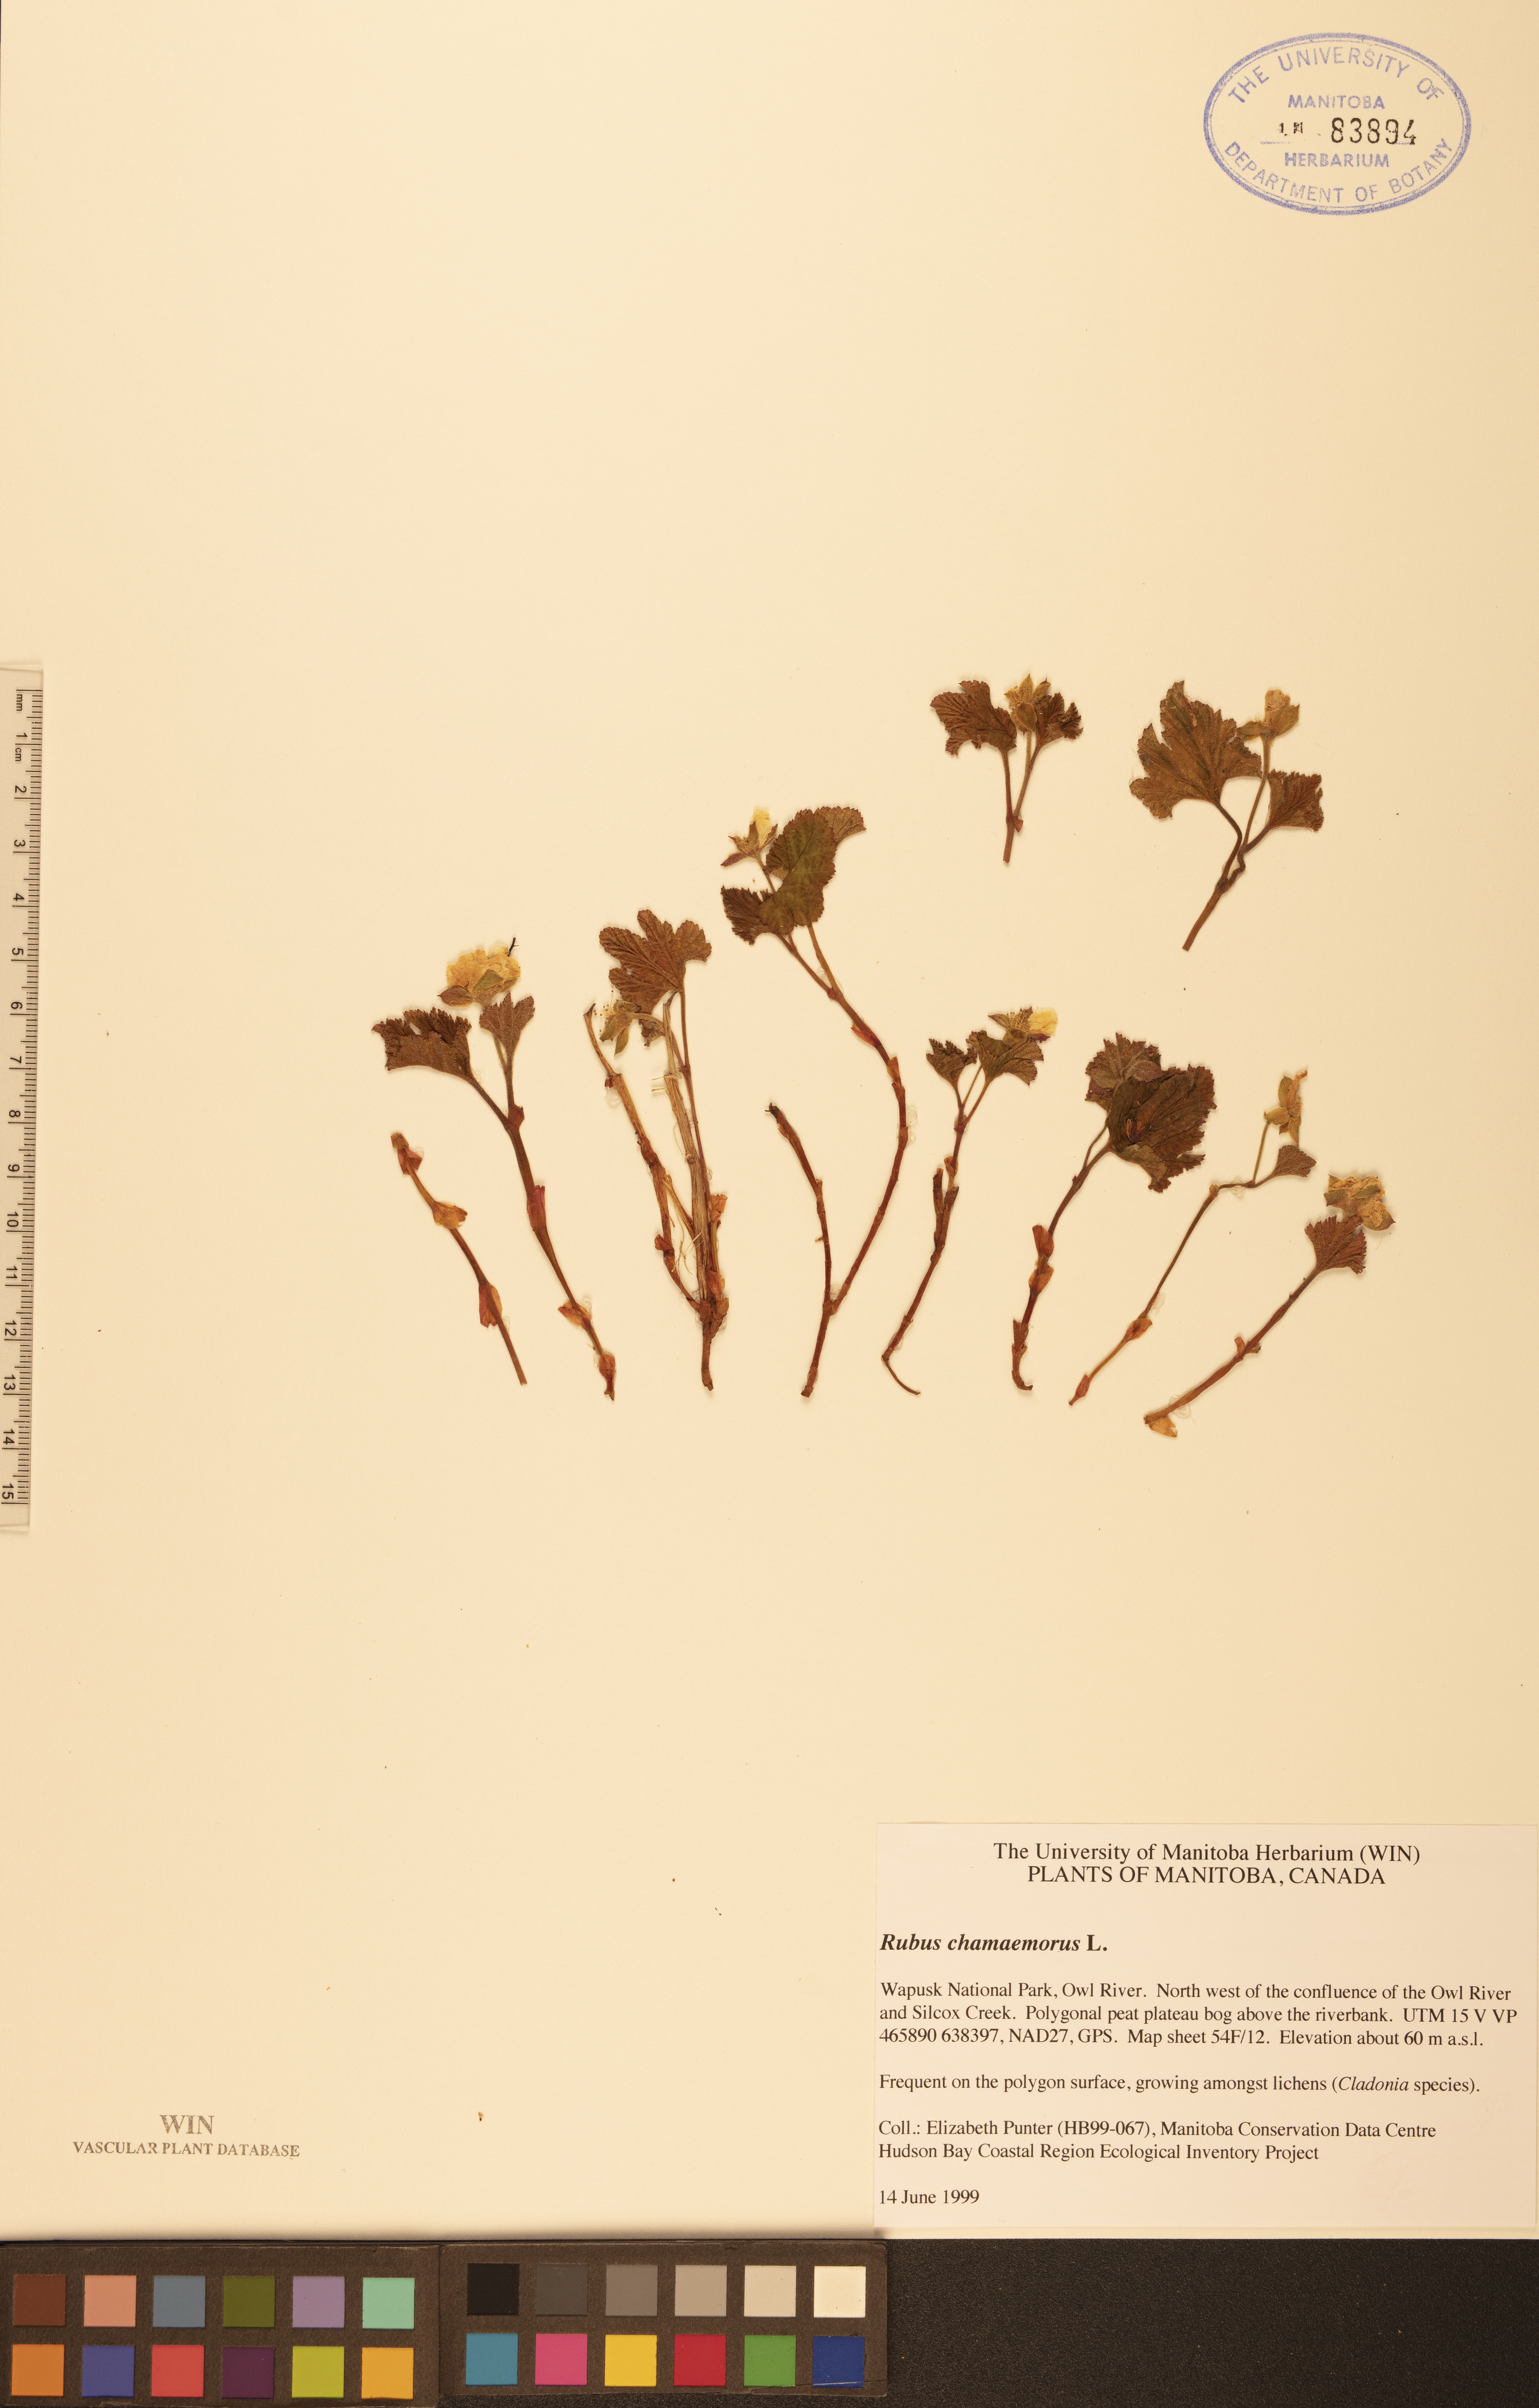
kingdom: Plantae
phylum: Tracheophyta
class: Magnoliopsida
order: Rosales
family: Rosaceae
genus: Rubus
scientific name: Rubus chamaemorus
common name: Cloudberry
